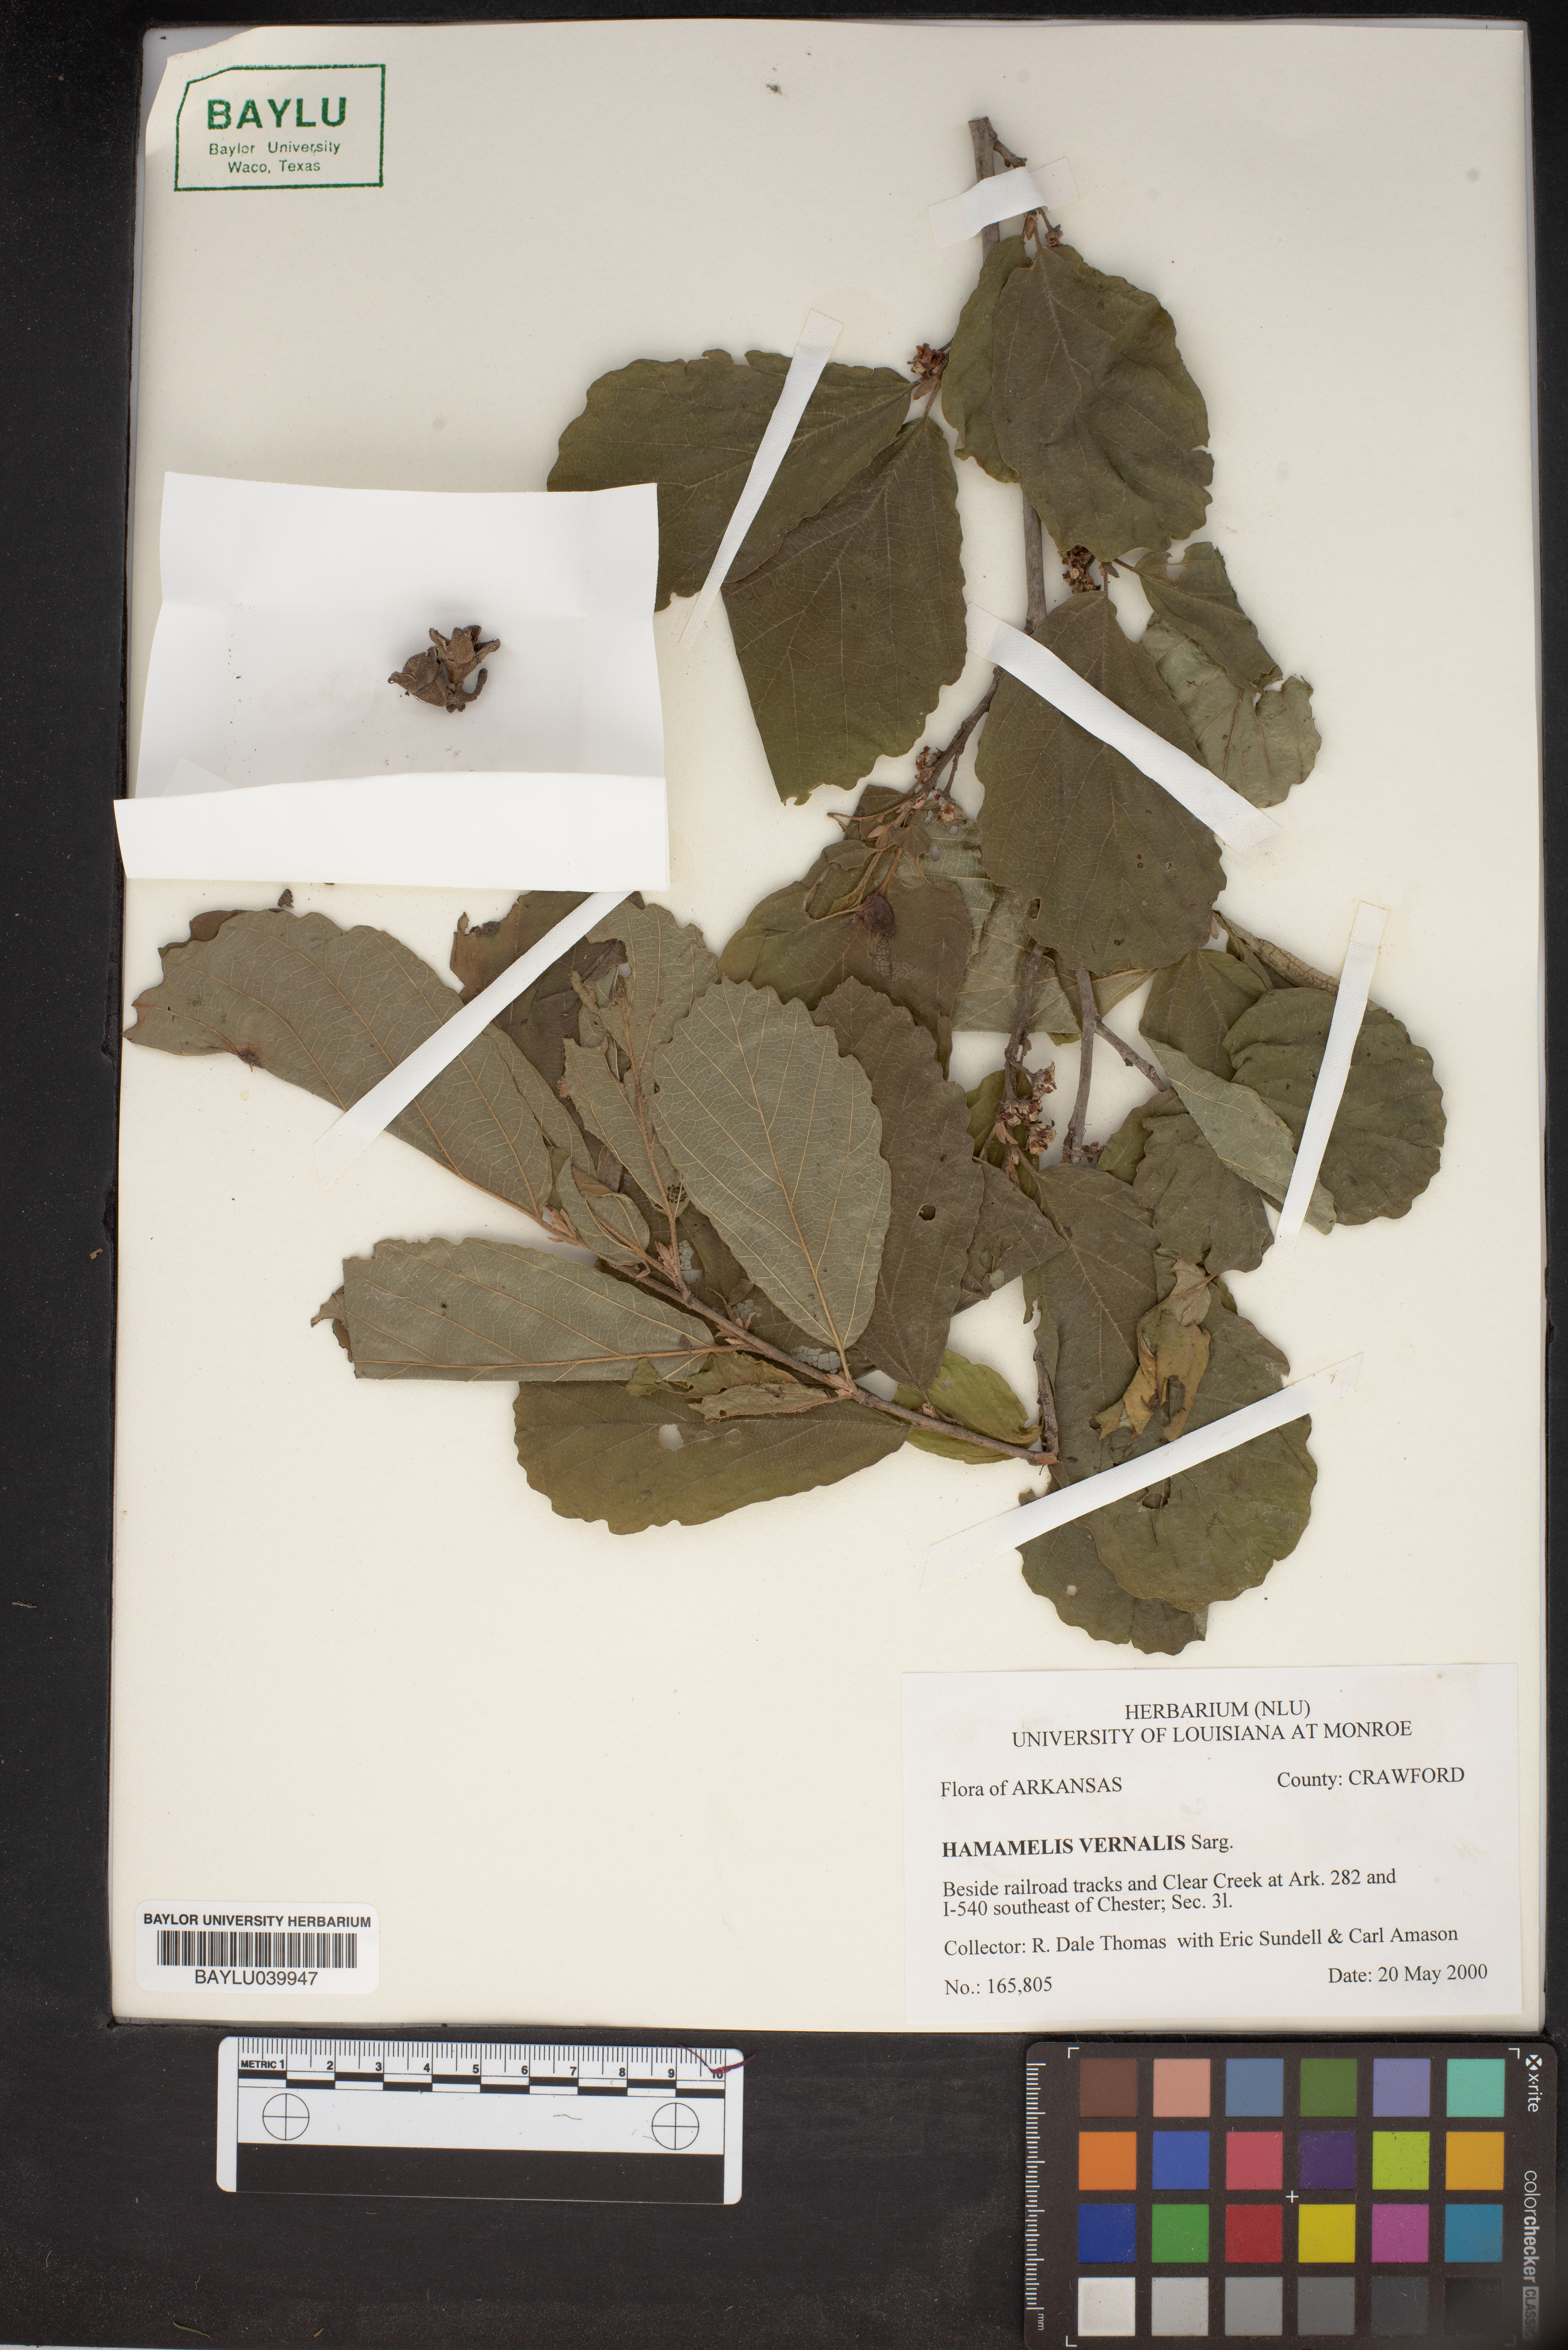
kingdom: Plantae
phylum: Tracheophyta
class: Magnoliopsida
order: Saxifragales
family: Hamamelidaceae
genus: Hamamelis
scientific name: Hamamelis vernalis
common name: Ozark witch-hazel
